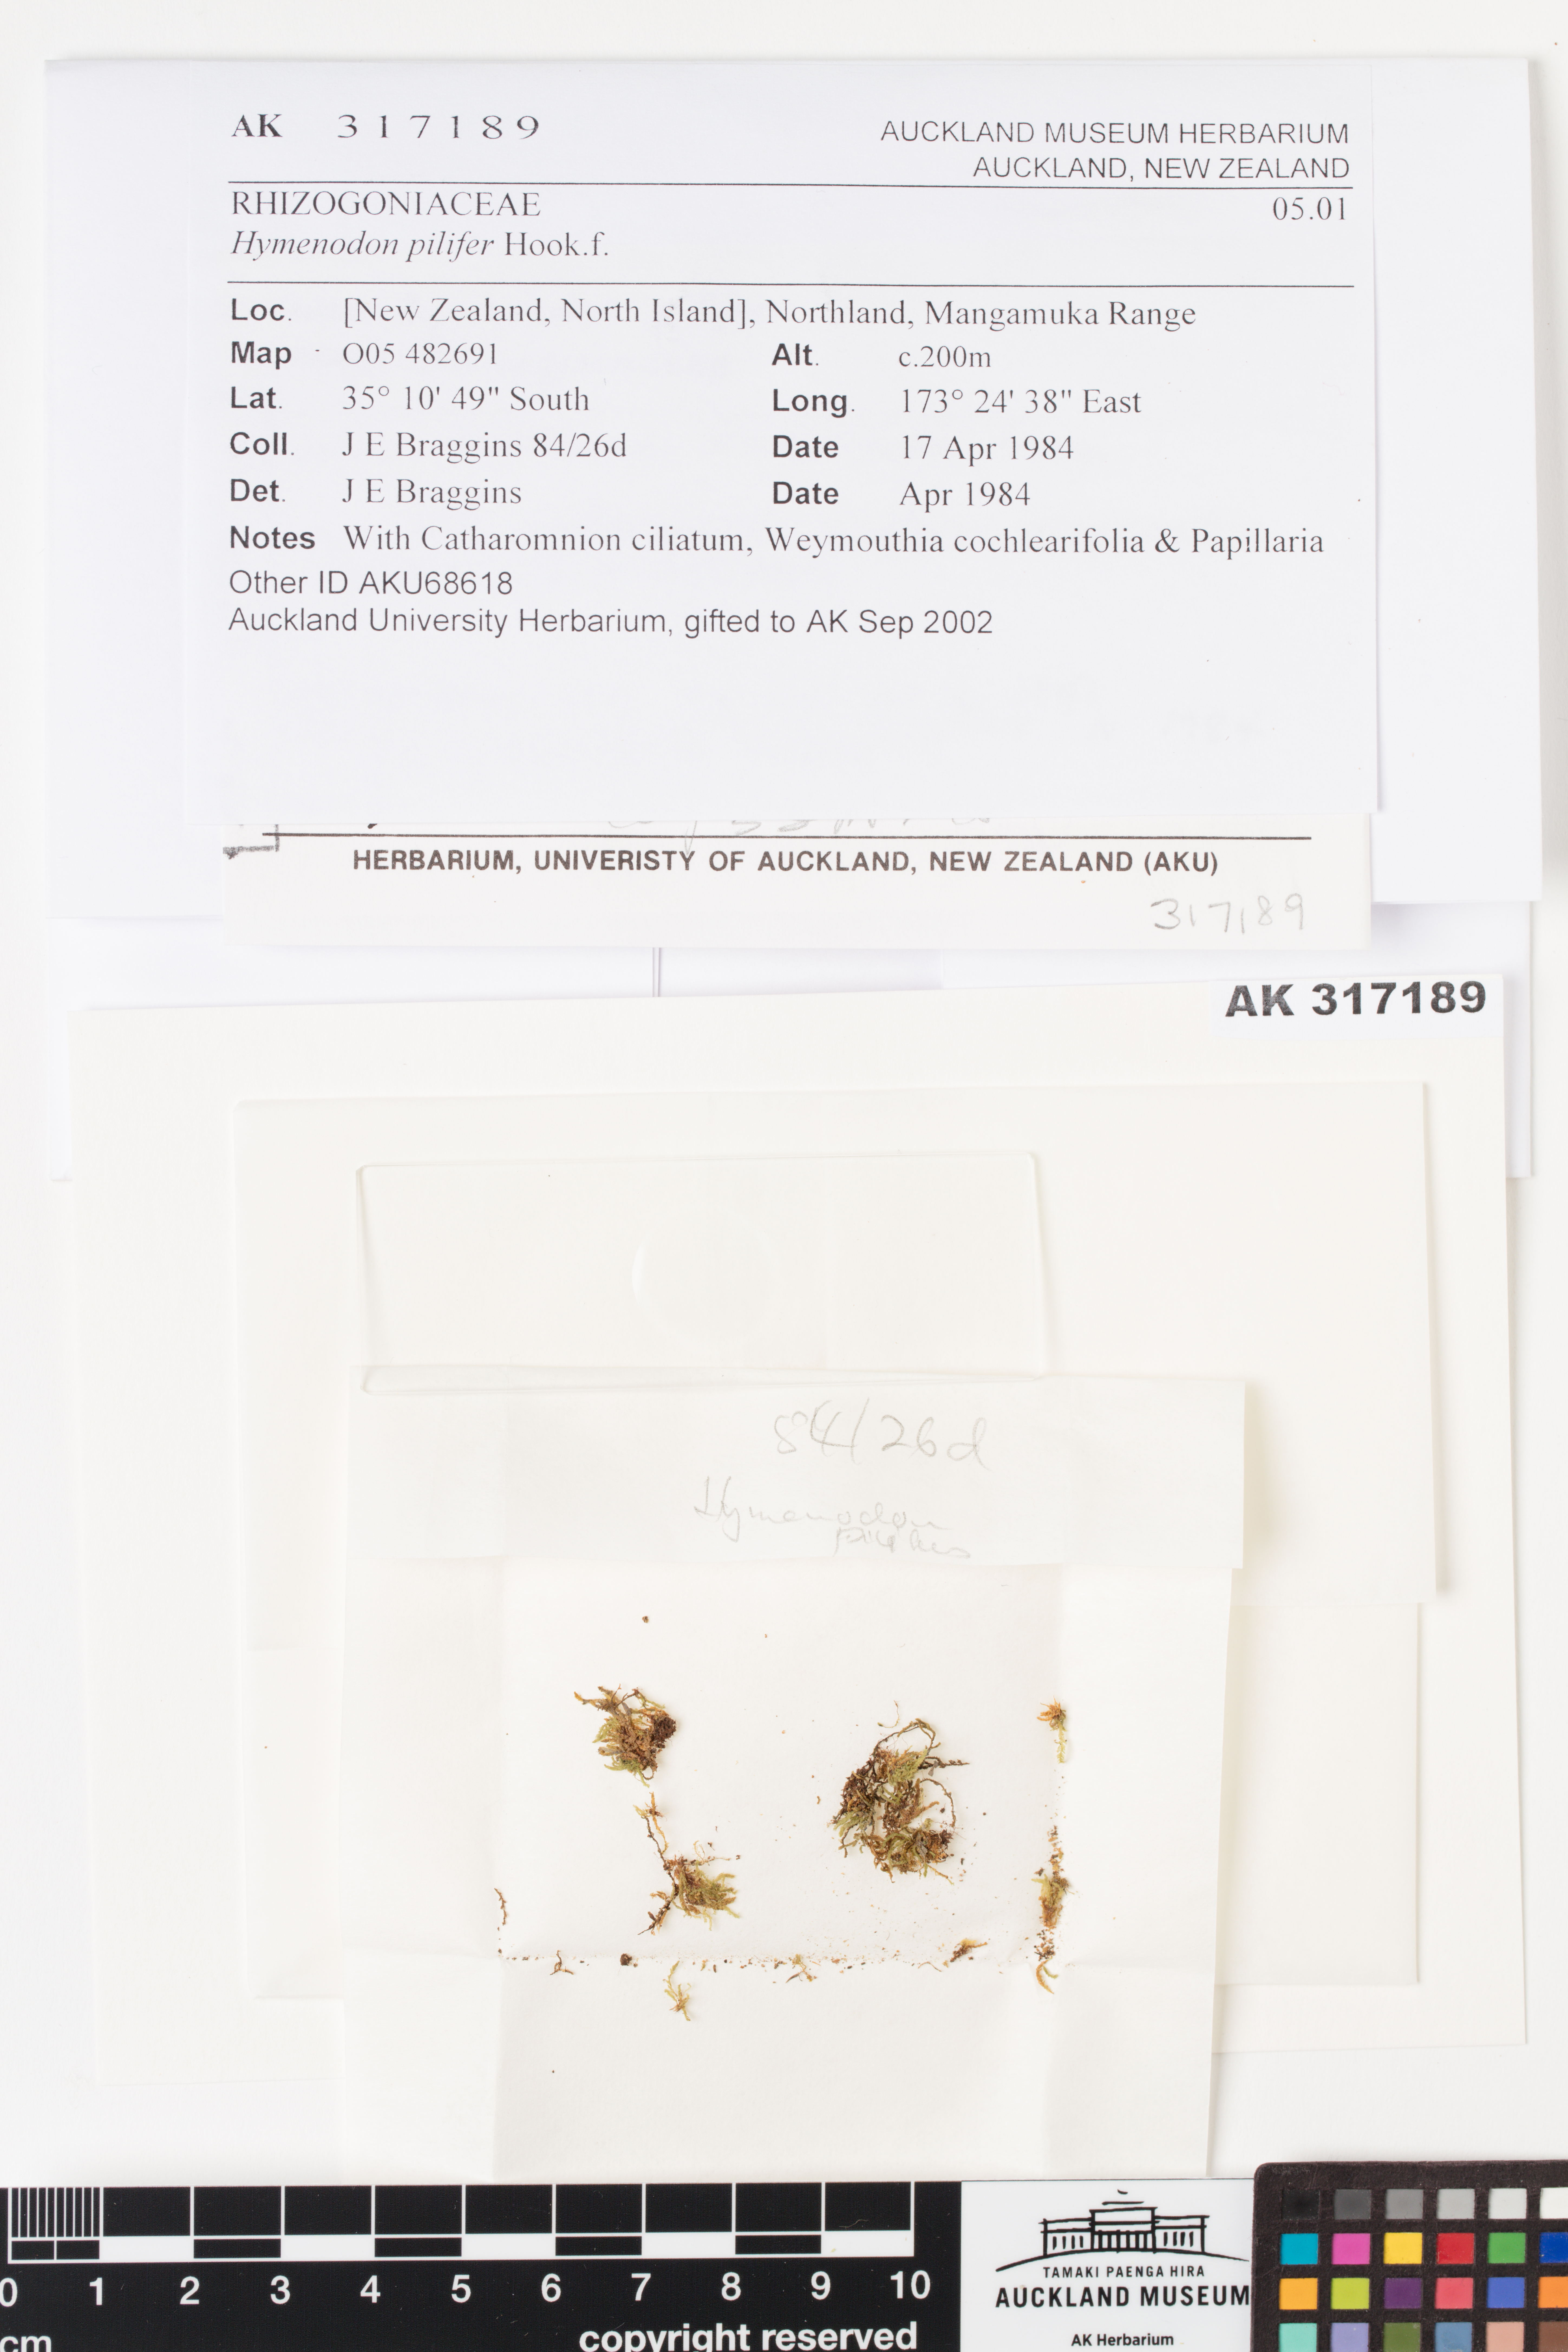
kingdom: Plantae
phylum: Bryophyta
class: Bryopsida
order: Orthodontiales
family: Orthodontiaceae
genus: Hymenodon
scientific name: Hymenodon pilifer
